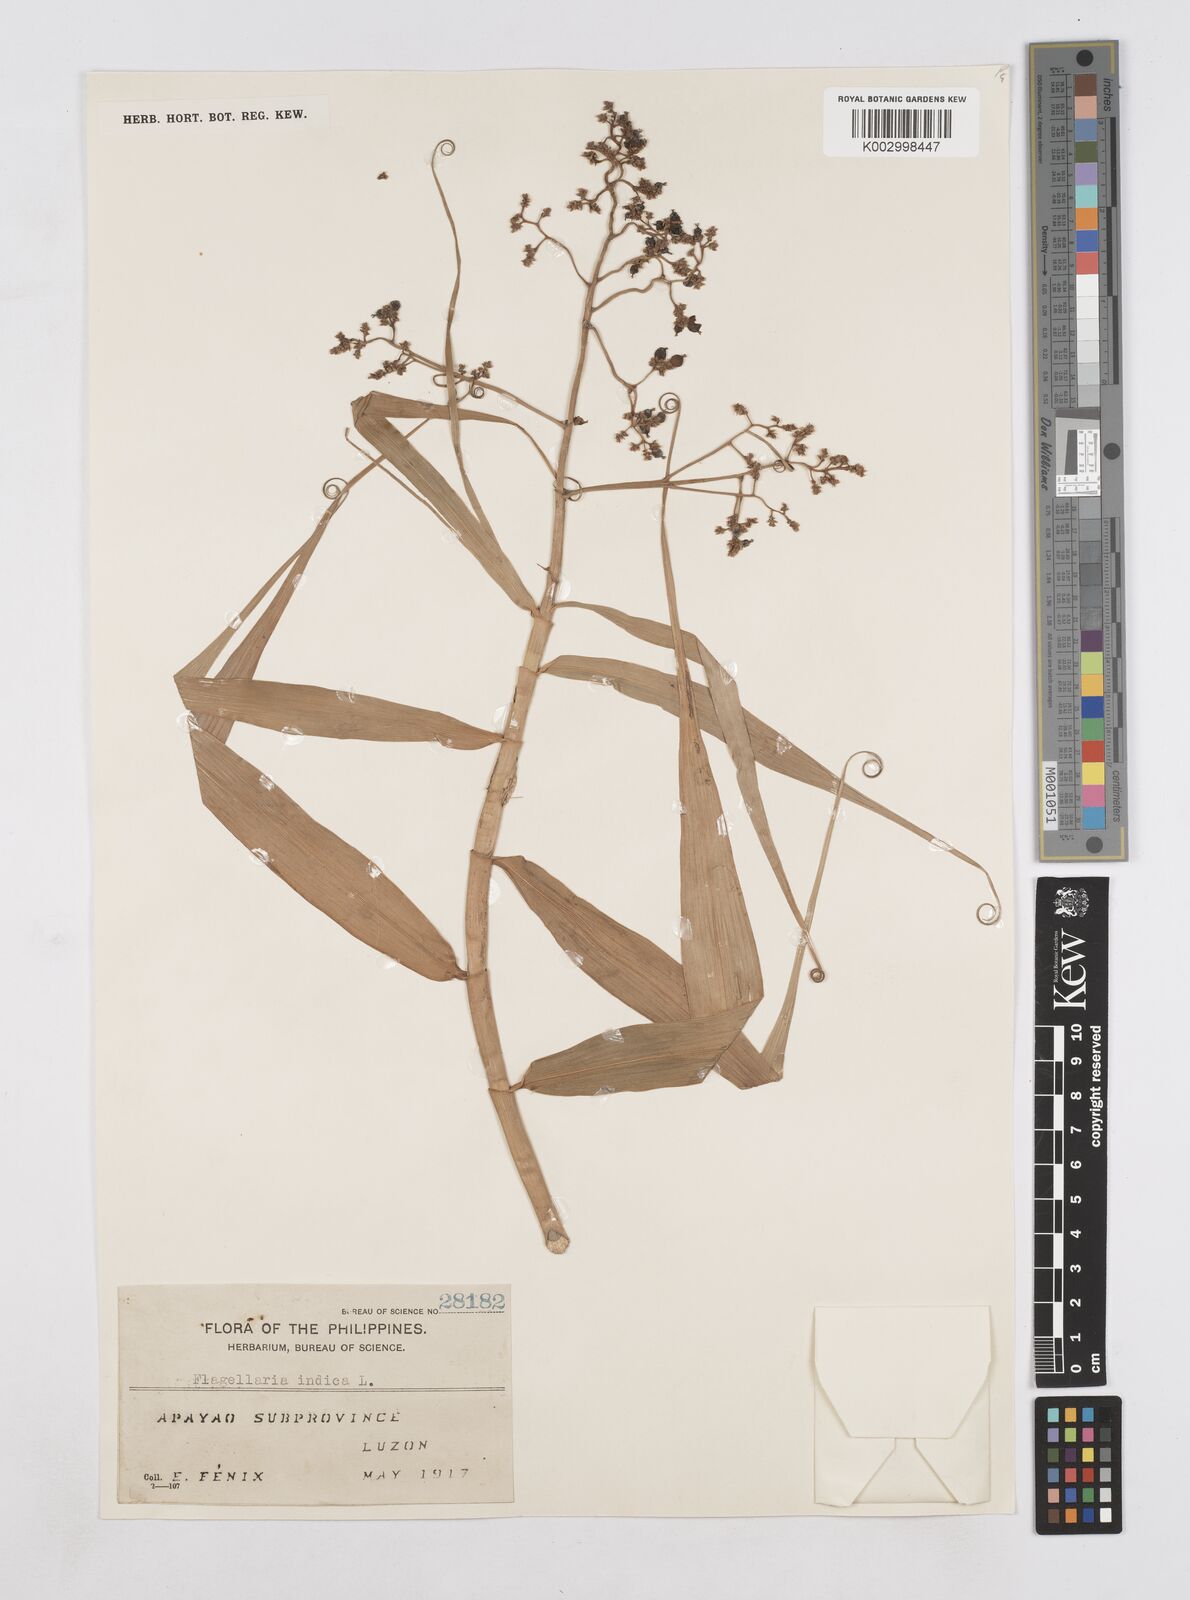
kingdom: Plantae
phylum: Tracheophyta
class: Liliopsida
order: Poales
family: Flagellariaceae
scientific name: Flagellariaceae
